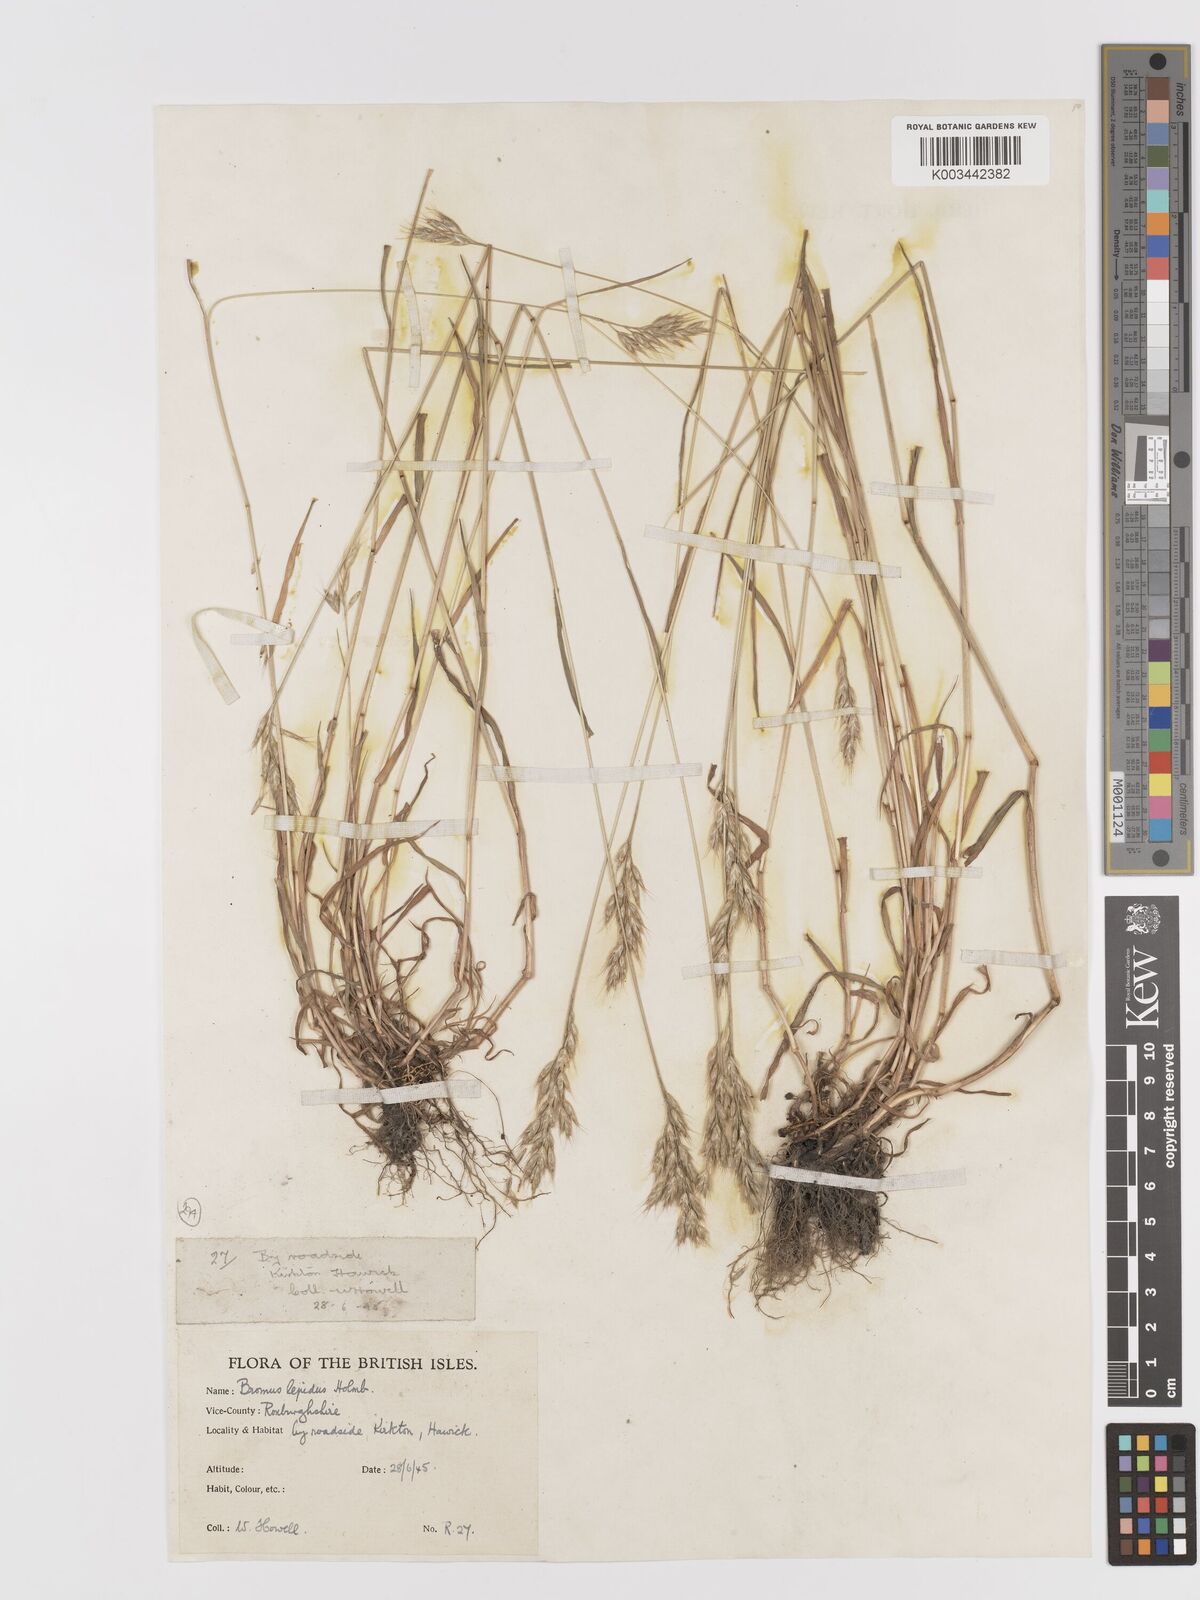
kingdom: Plantae
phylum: Tracheophyta
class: Liliopsida
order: Poales
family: Poaceae
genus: Bromus
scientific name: Bromus
